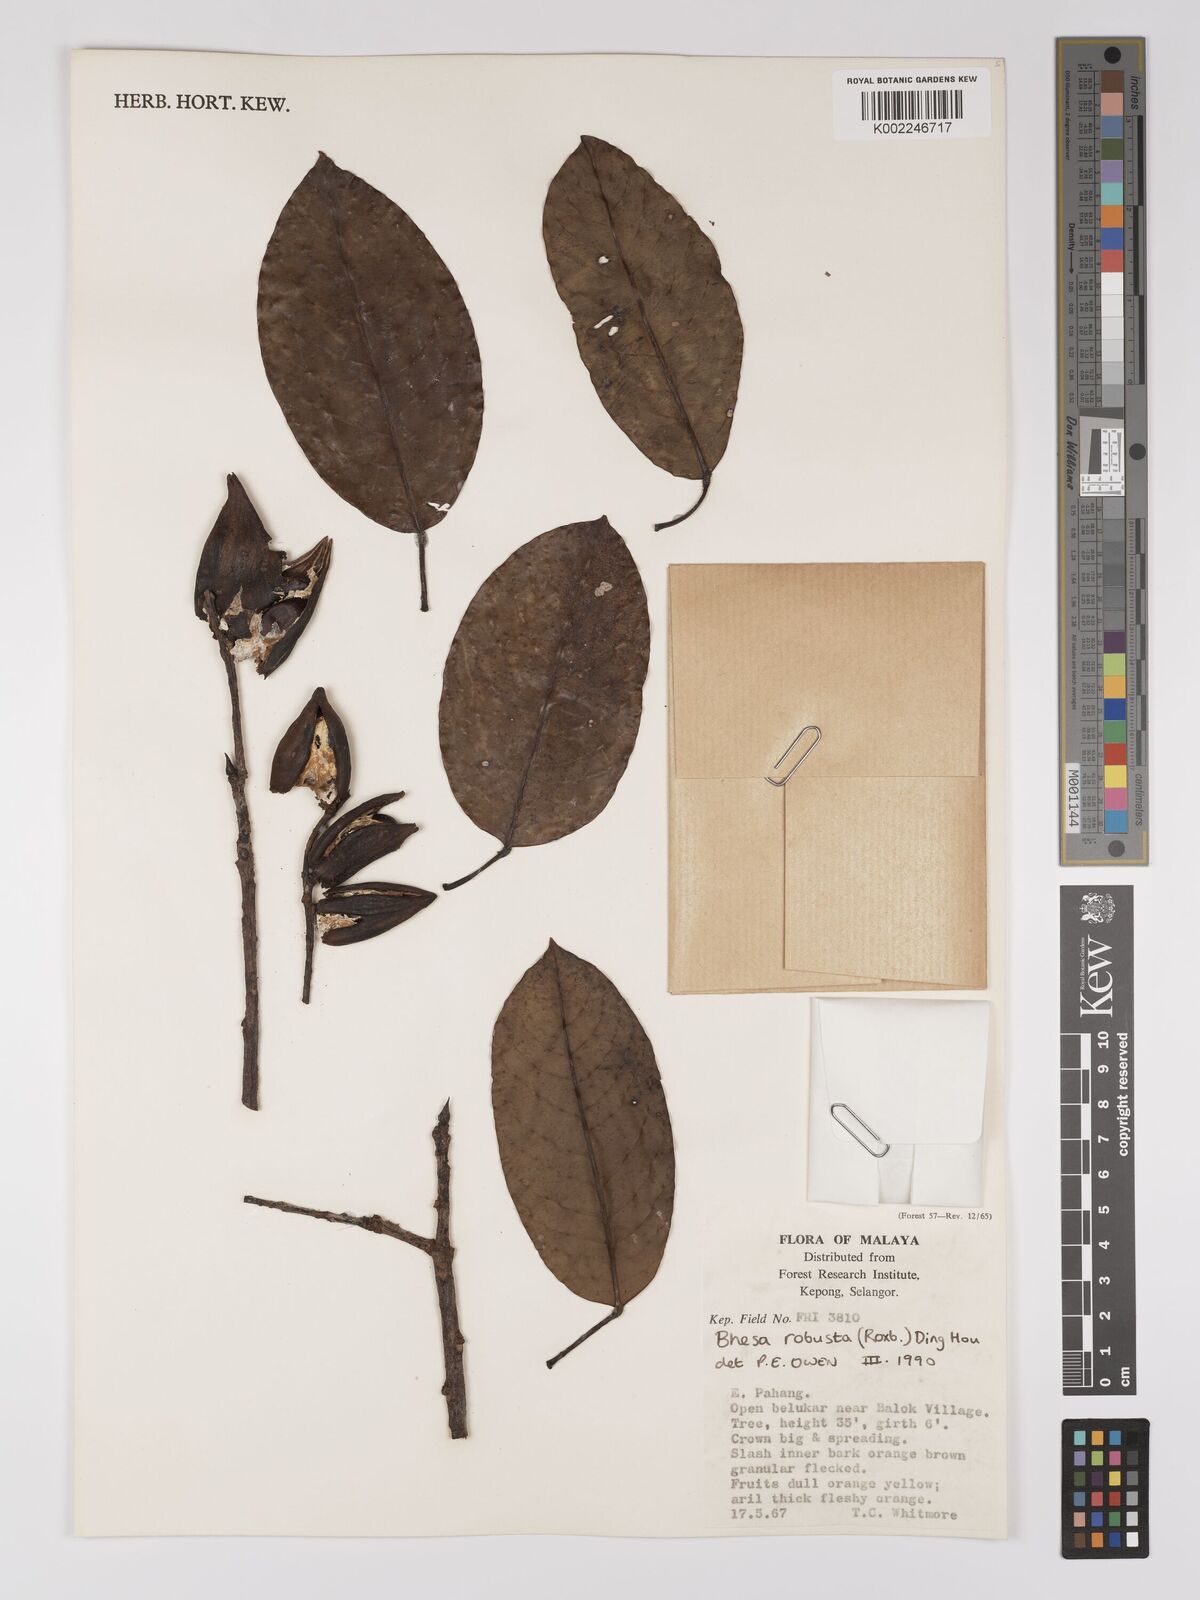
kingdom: Plantae
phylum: Tracheophyta
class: Magnoliopsida
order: Malpighiales
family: Centroplacaceae
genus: Bhesa
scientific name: Bhesa robusta
